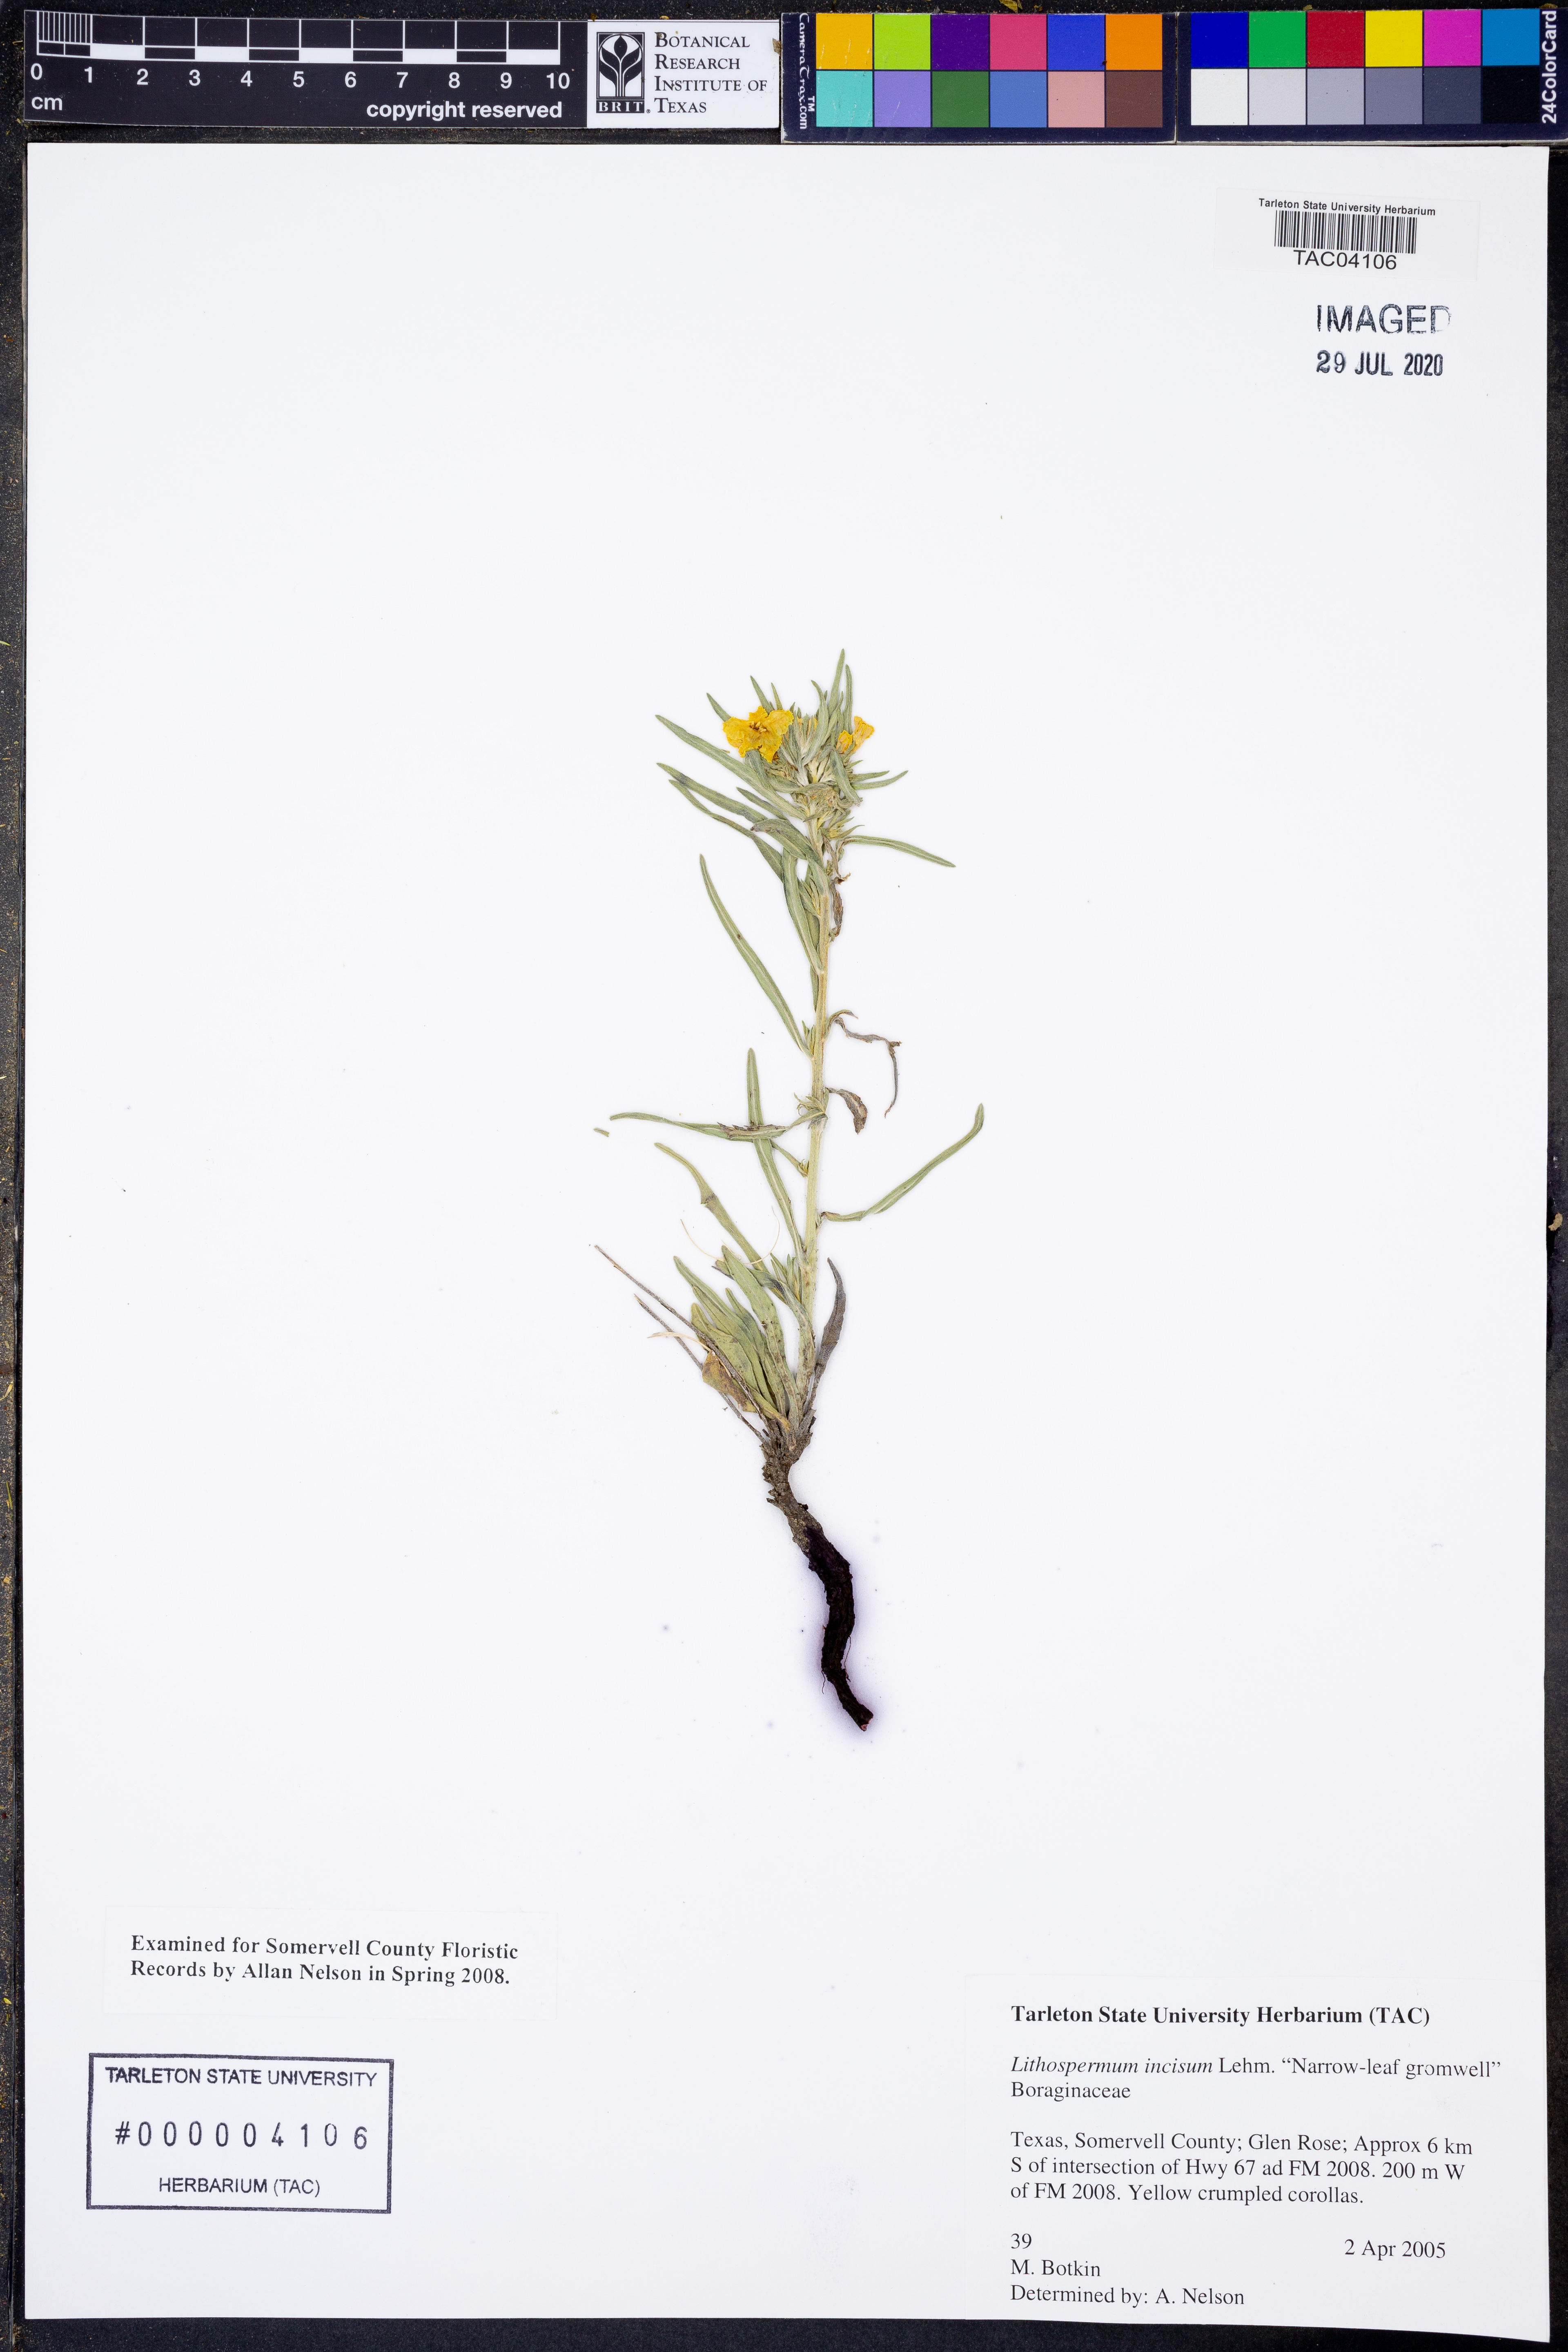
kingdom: Plantae
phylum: Tracheophyta
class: Magnoliopsida
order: Boraginales
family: Boraginaceae
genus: Lithospermum
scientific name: Lithospermum incisum
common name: Fringed gromwell
